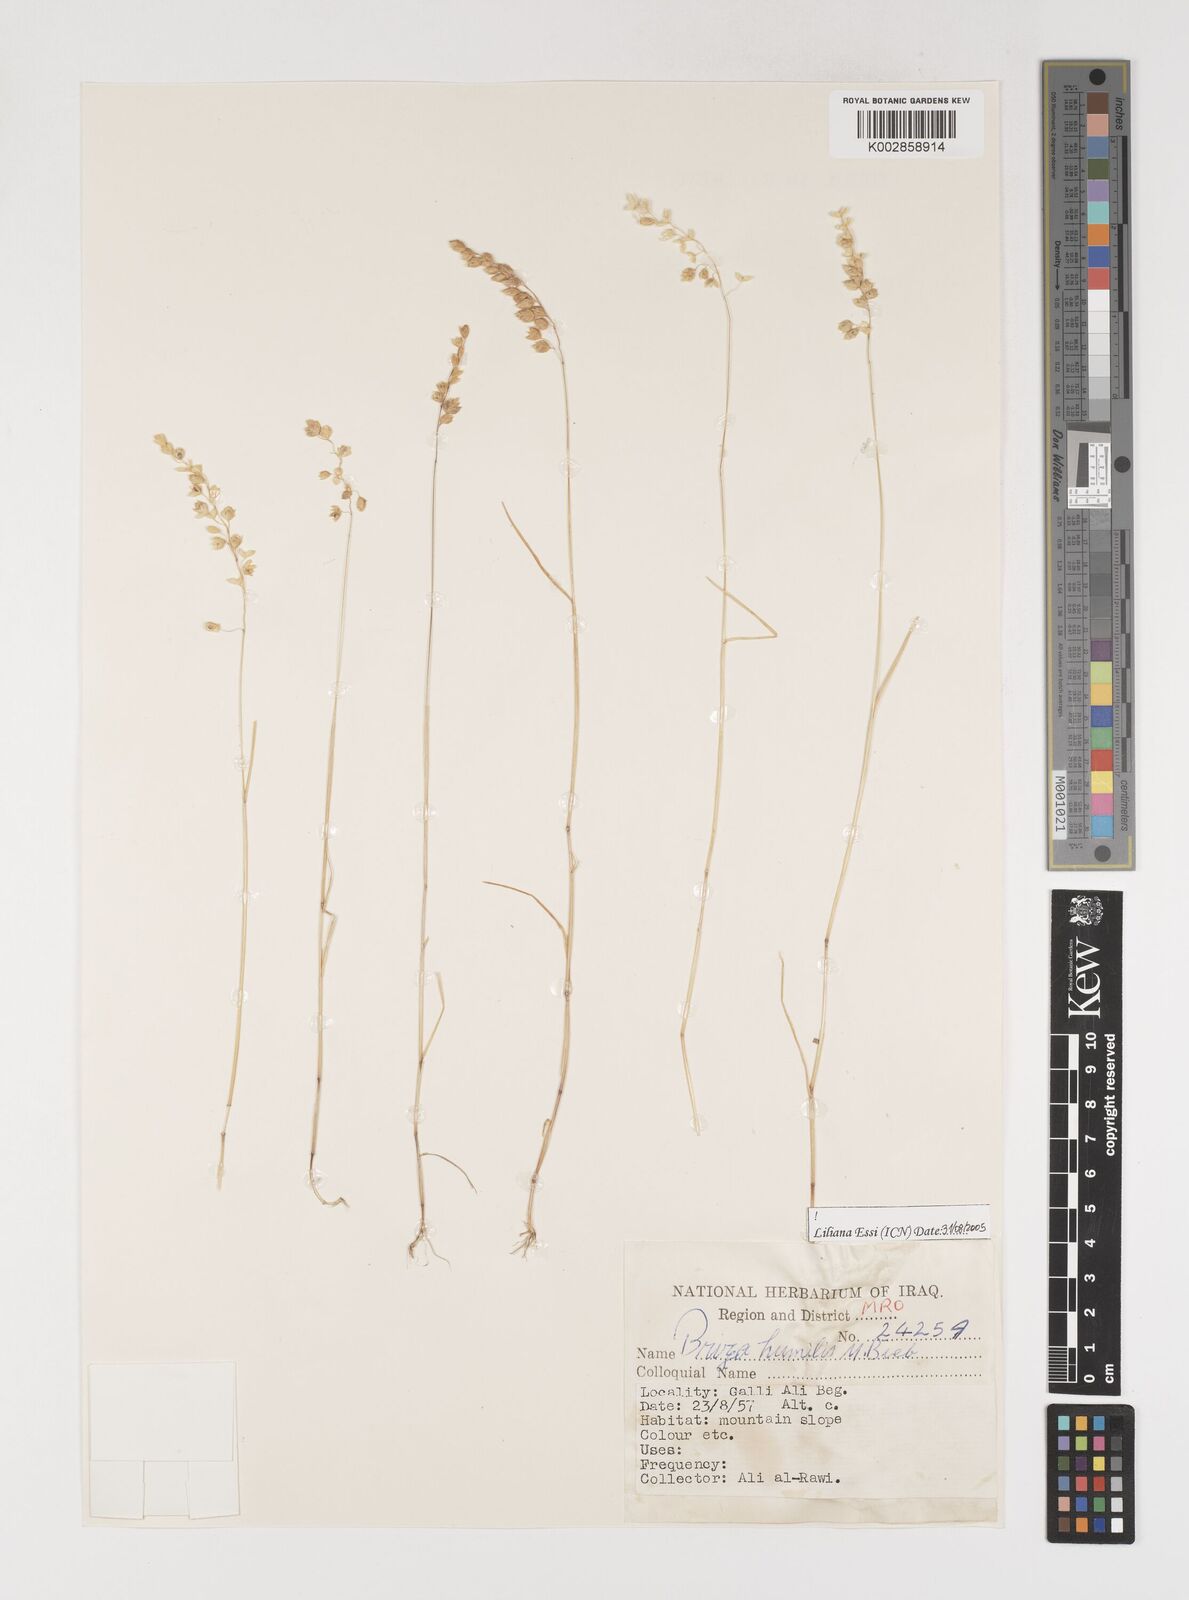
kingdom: Plantae
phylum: Tracheophyta
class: Liliopsida
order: Poales
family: Poaceae
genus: Briza
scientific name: Briza humilis
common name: Spiked quaking grass
